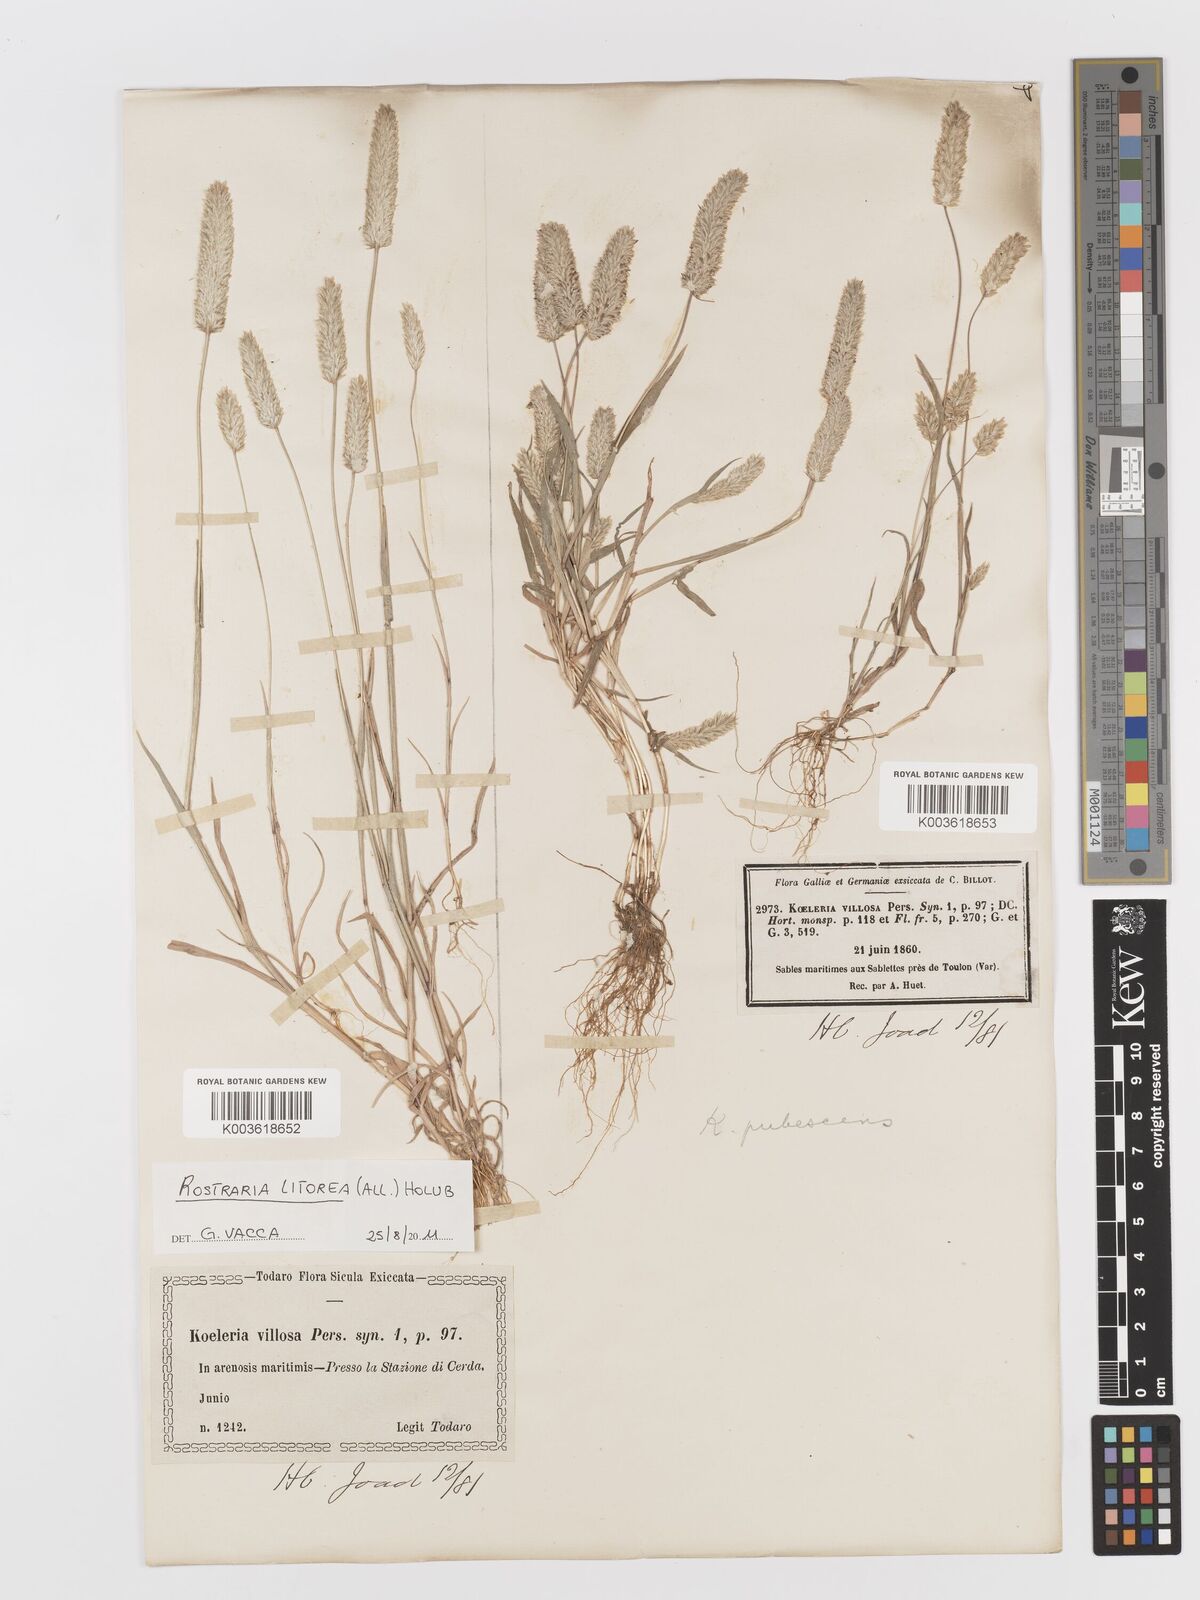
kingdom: Plantae
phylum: Tracheophyta
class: Liliopsida
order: Poales
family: Poaceae
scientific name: Poaceae
